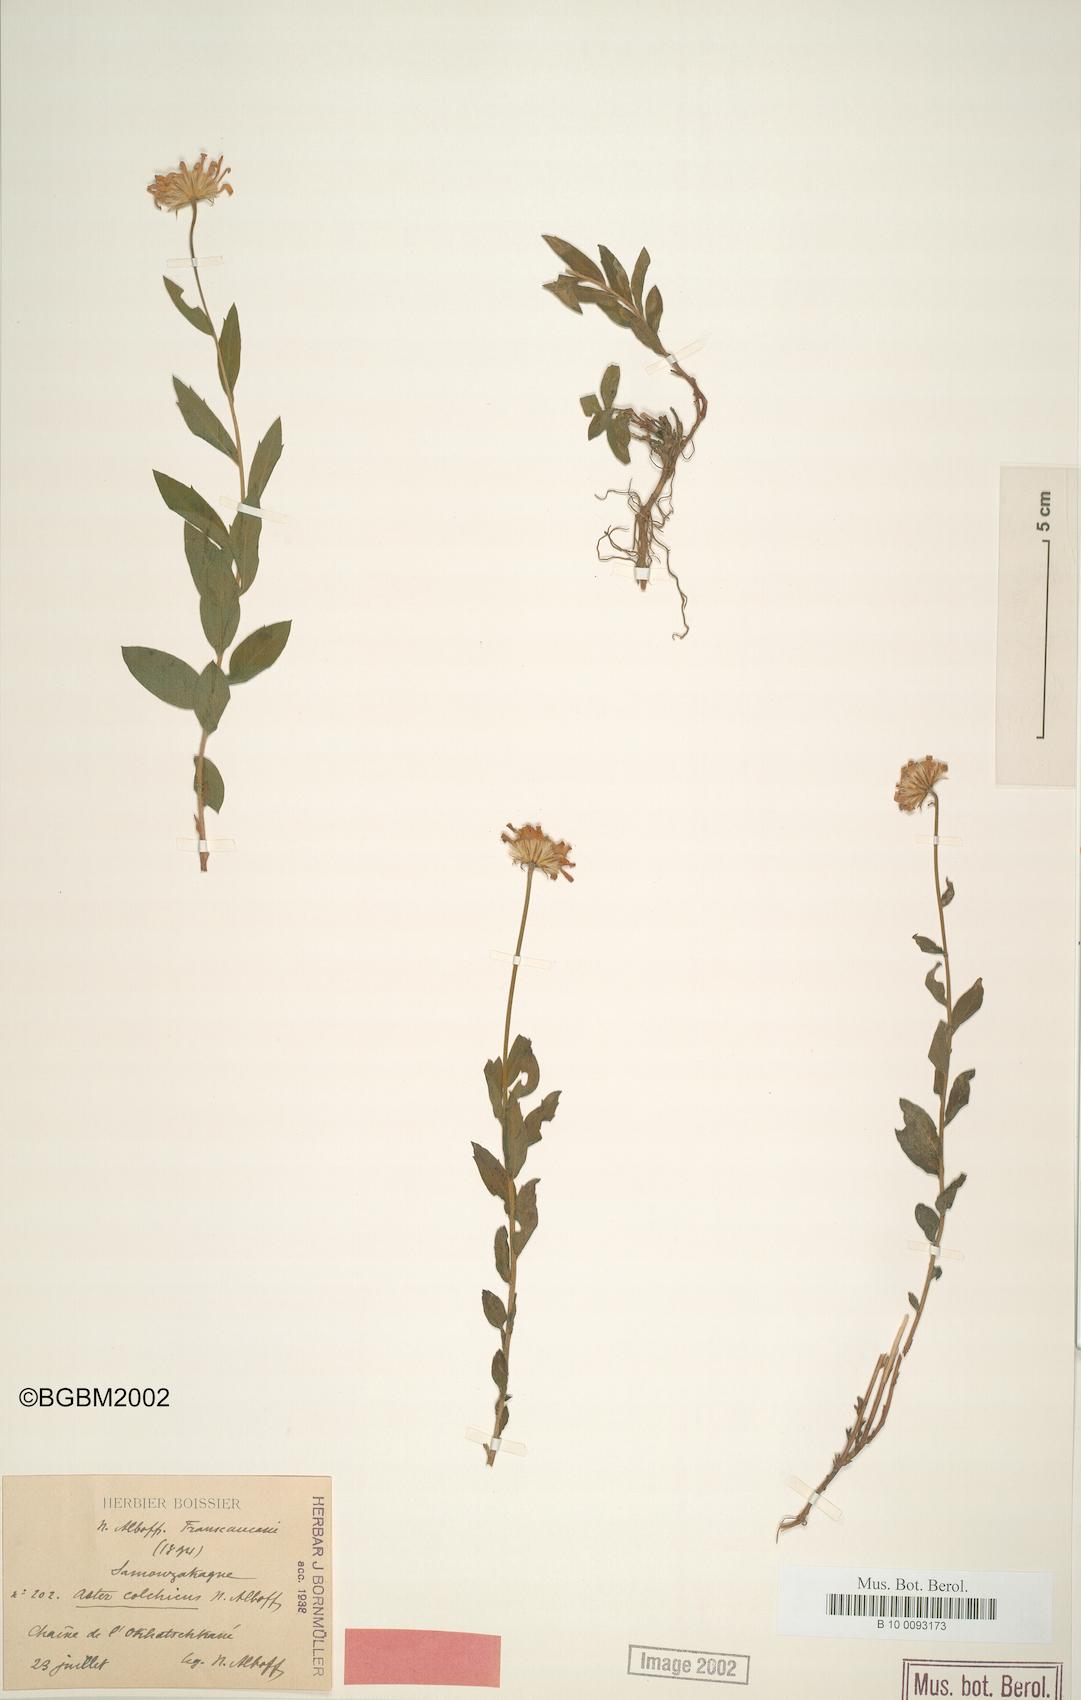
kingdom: Plantae
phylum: Tracheophyta
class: Magnoliopsida
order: Asterales
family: Asteraceae
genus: Kemulariella
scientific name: Kemulariella colchica
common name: Colchic kemulariella
